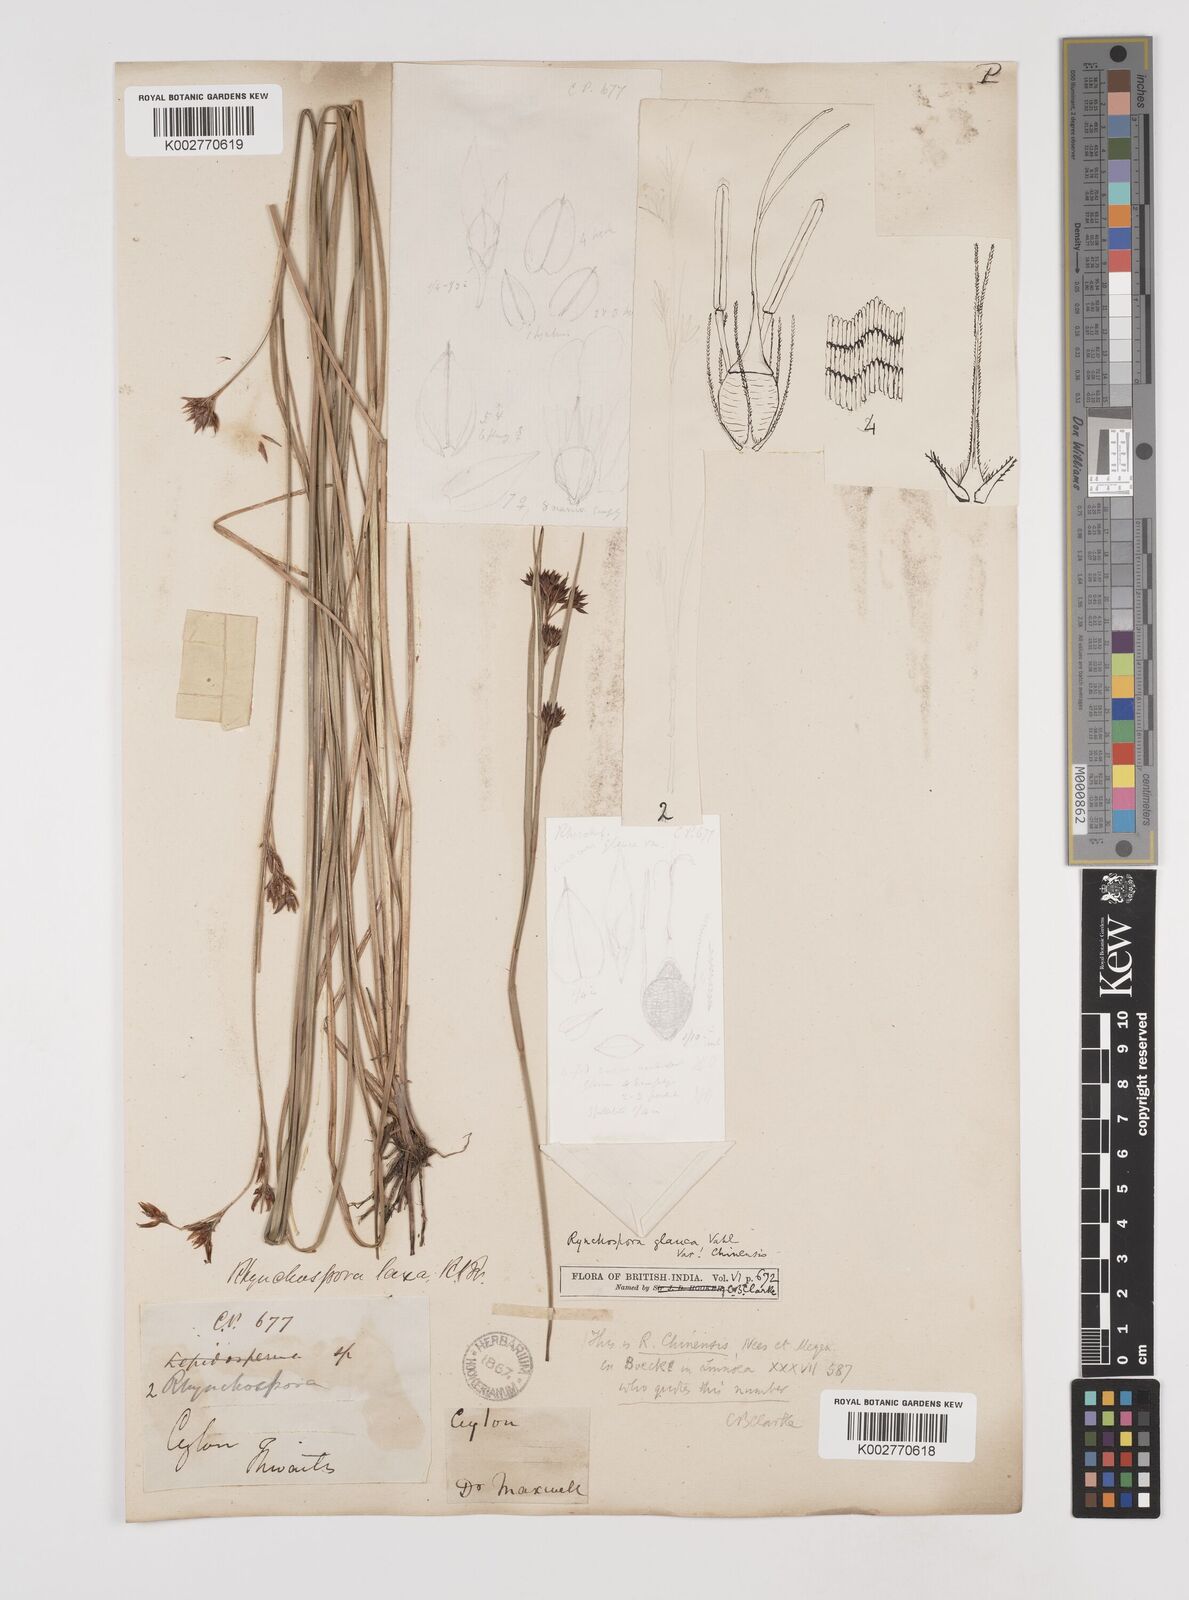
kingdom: Plantae
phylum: Tracheophyta
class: Liliopsida
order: Poales
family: Cyperaceae
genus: Rhynchospora
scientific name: Rhynchospora rugosa
